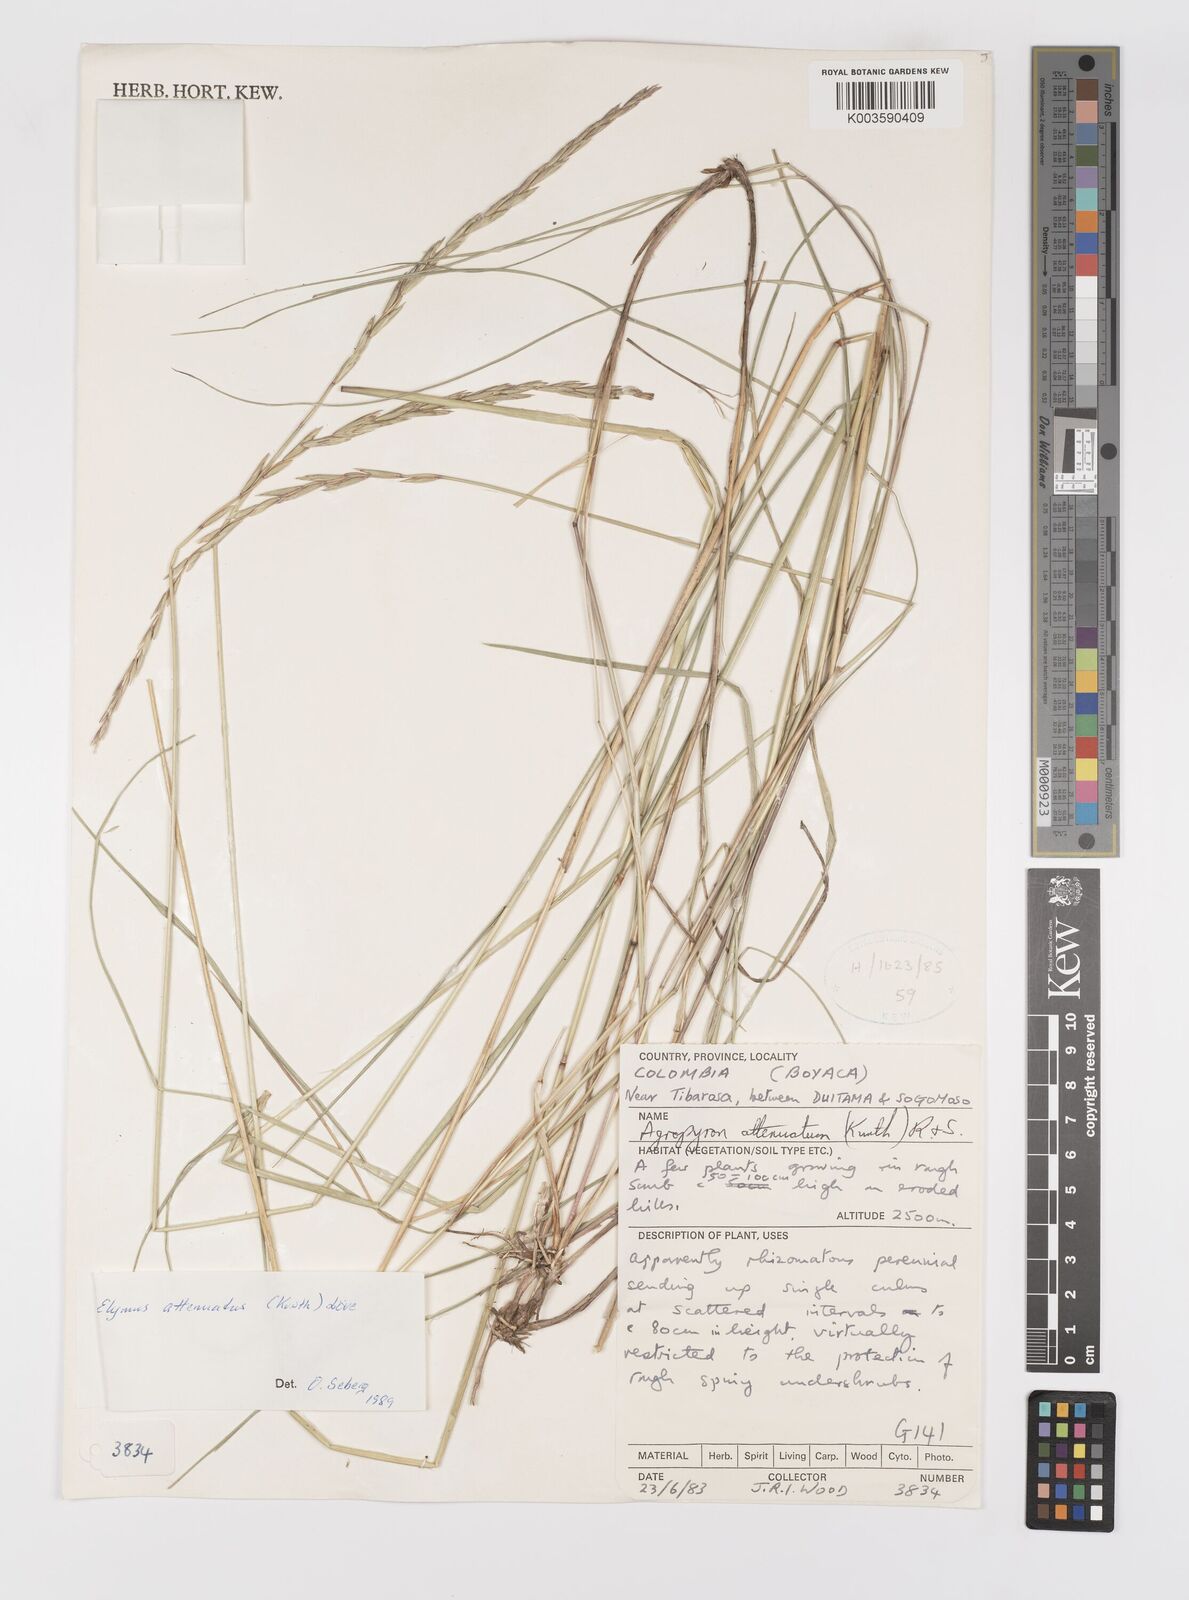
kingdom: Plantae
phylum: Tracheophyta
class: Liliopsida
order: Poales
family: Poaceae
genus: Elymus
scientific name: Elymus cordilleranus
